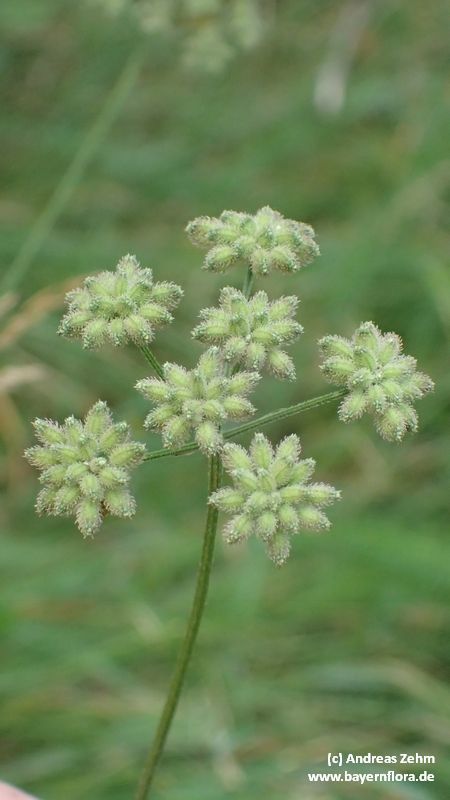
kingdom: Plantae
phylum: Tracheophyta
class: Magnoliopsida
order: Apiales
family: Apiaceae
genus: Torilis
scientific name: Torilis japonica
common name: Upright hedge-parsley
